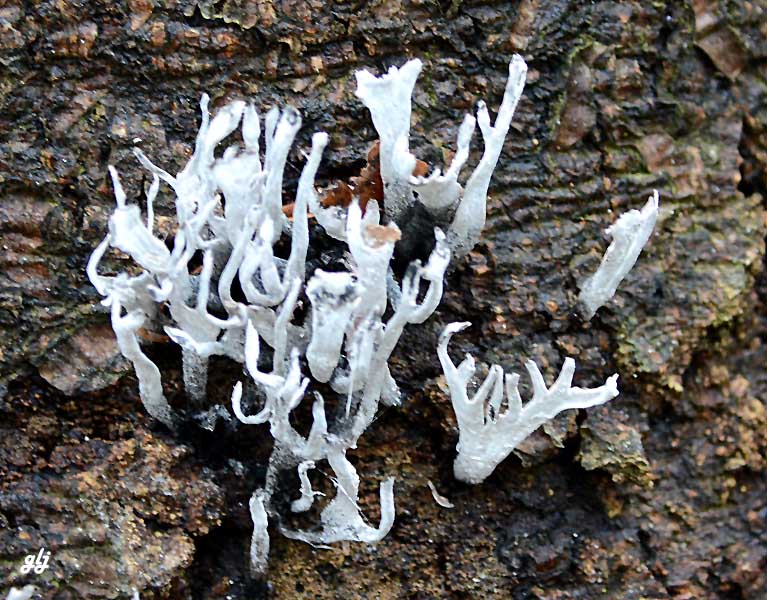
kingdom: Fungi
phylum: Ascomycota
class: Sordariomycetes
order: Xylariales
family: Xylariaceae
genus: Xylaria
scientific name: Xylaria hypoxylon
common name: grenet stødsvamp
